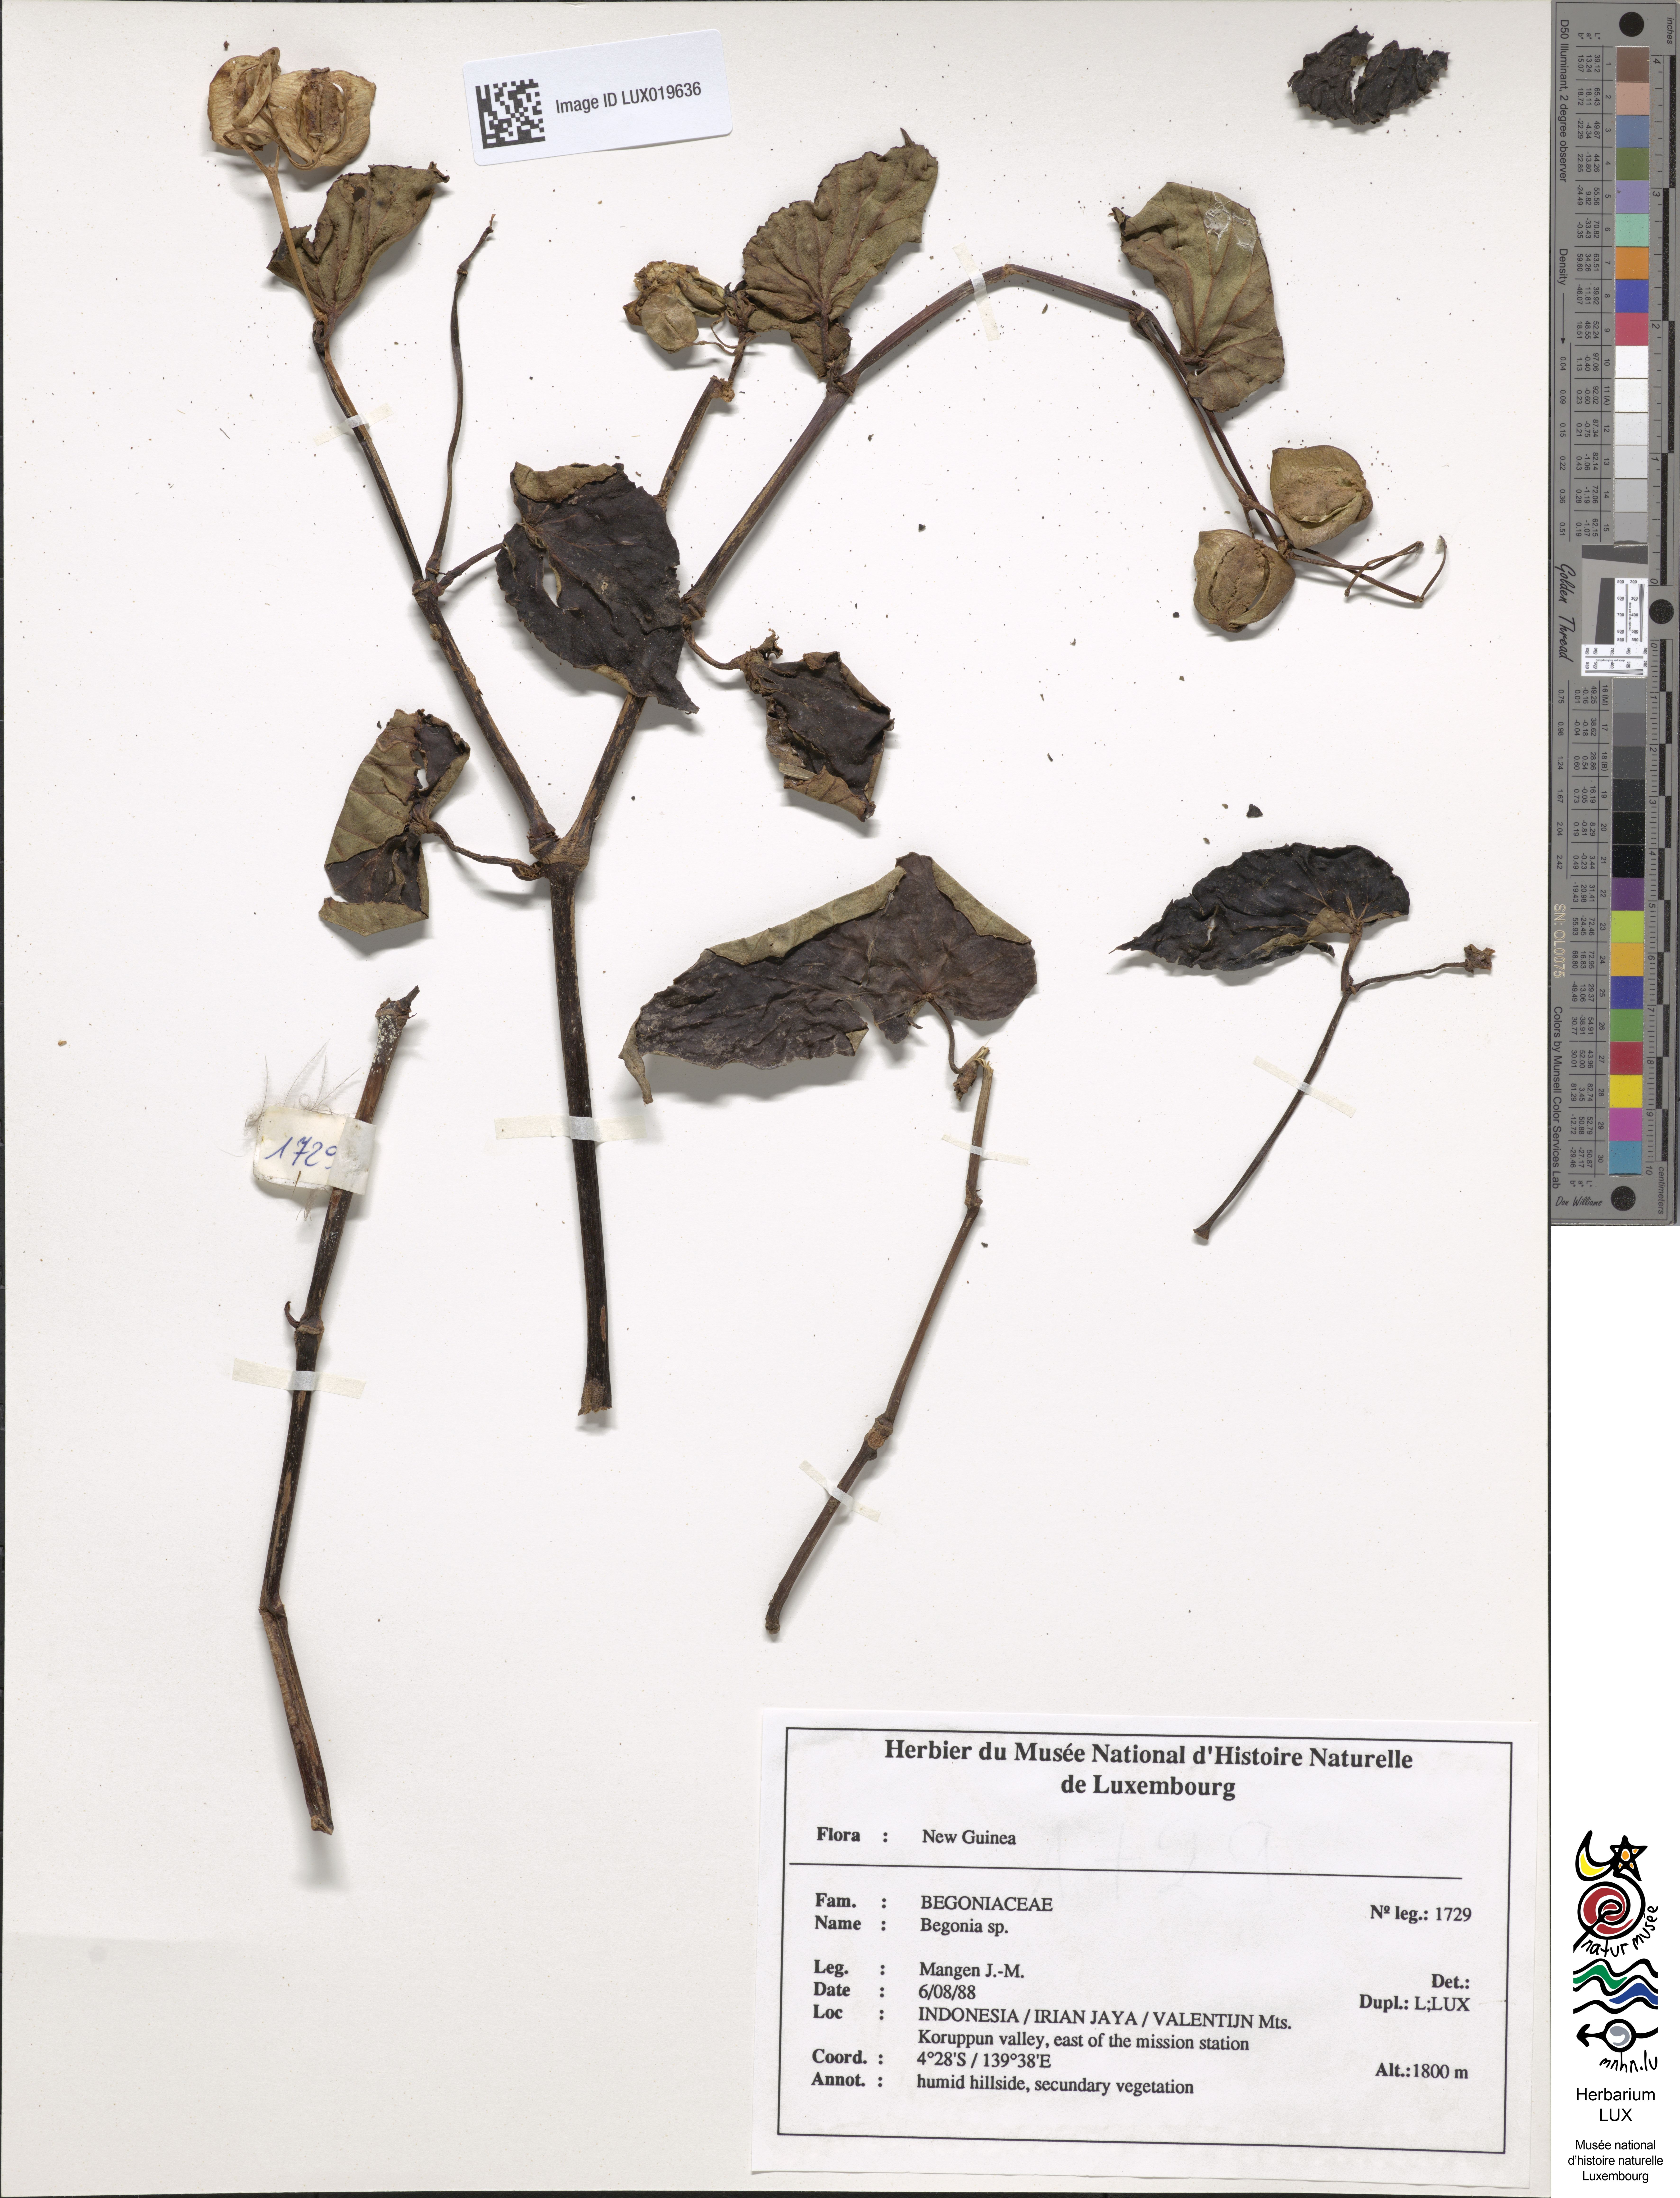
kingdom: Plantae
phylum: Tracheophyta
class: Magnoliopsida
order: Cucurbitales
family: Begoniaceae
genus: Begonia
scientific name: Begonia
